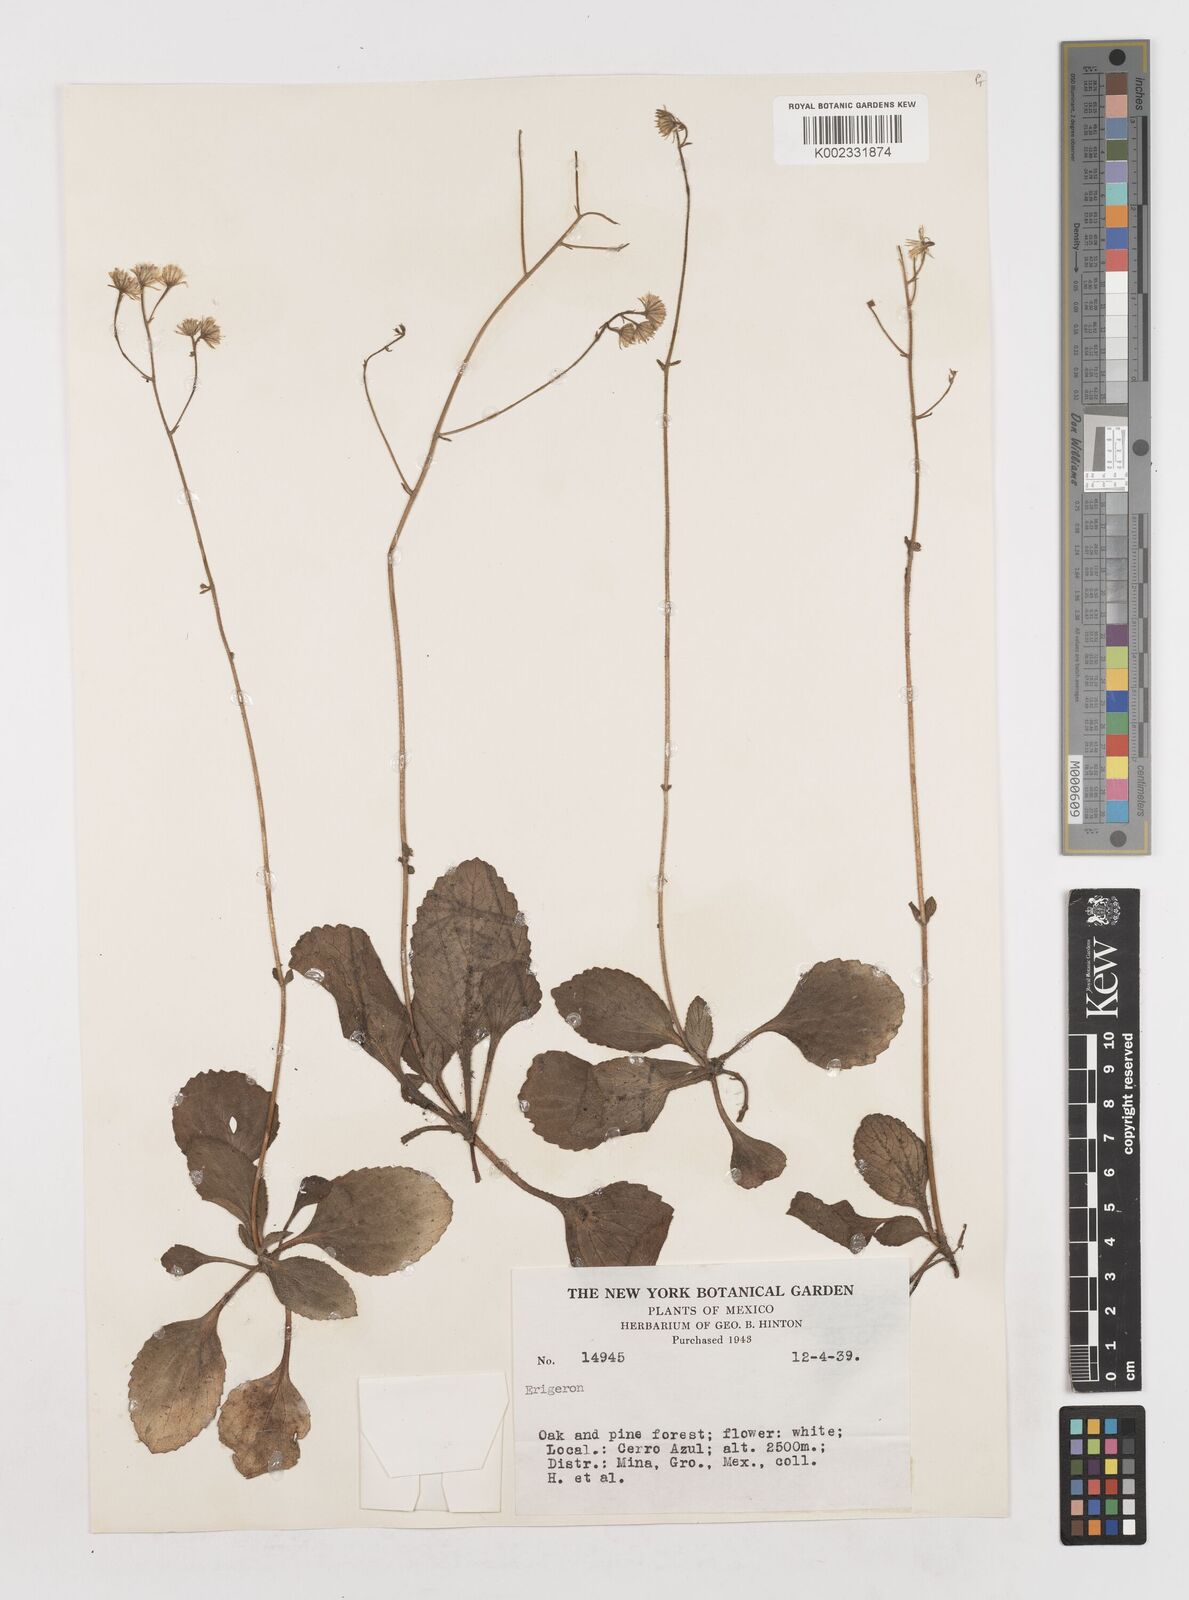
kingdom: Plantae
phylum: Tracheophyta
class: Magnoliopsida
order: Asterales
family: Asteraceae
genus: Erigeron
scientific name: Erigeron
